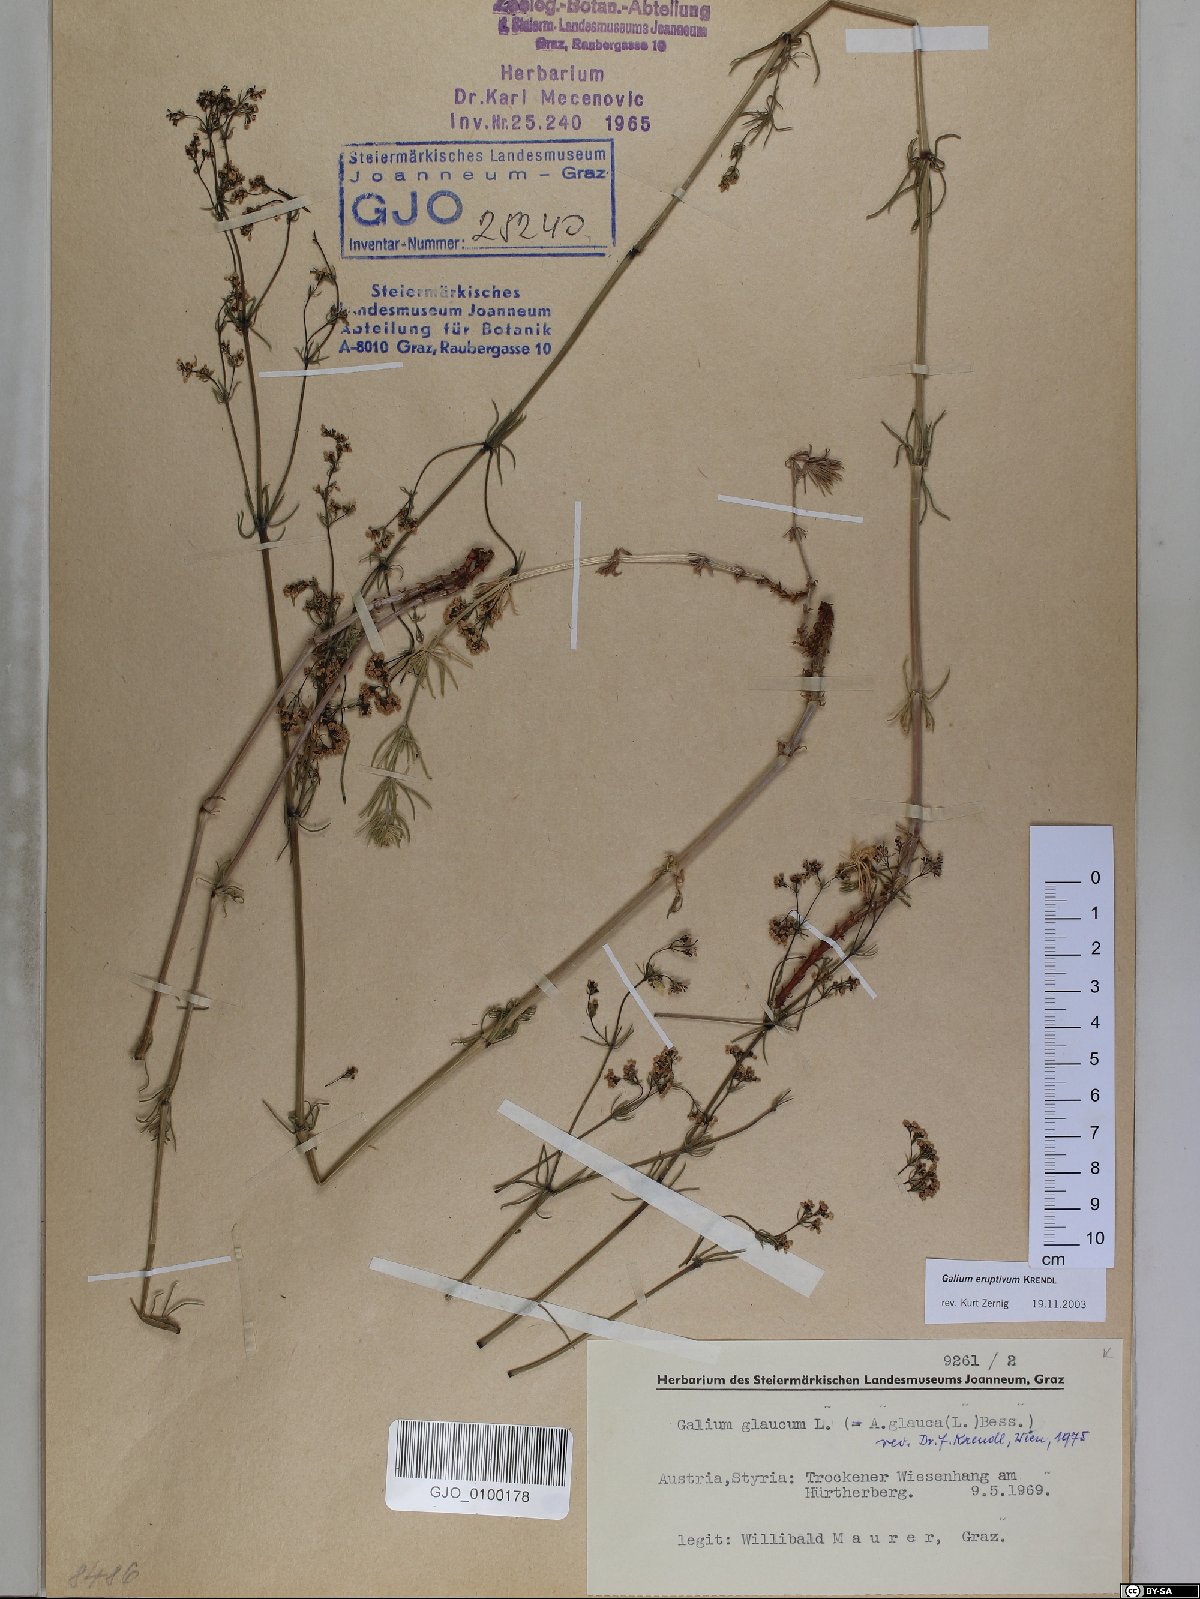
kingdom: Plantae
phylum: Tracheophyta
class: Magnoliopsida
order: Gentianales
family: Rubiaceae
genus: Galium
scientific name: Galium eruptivum
